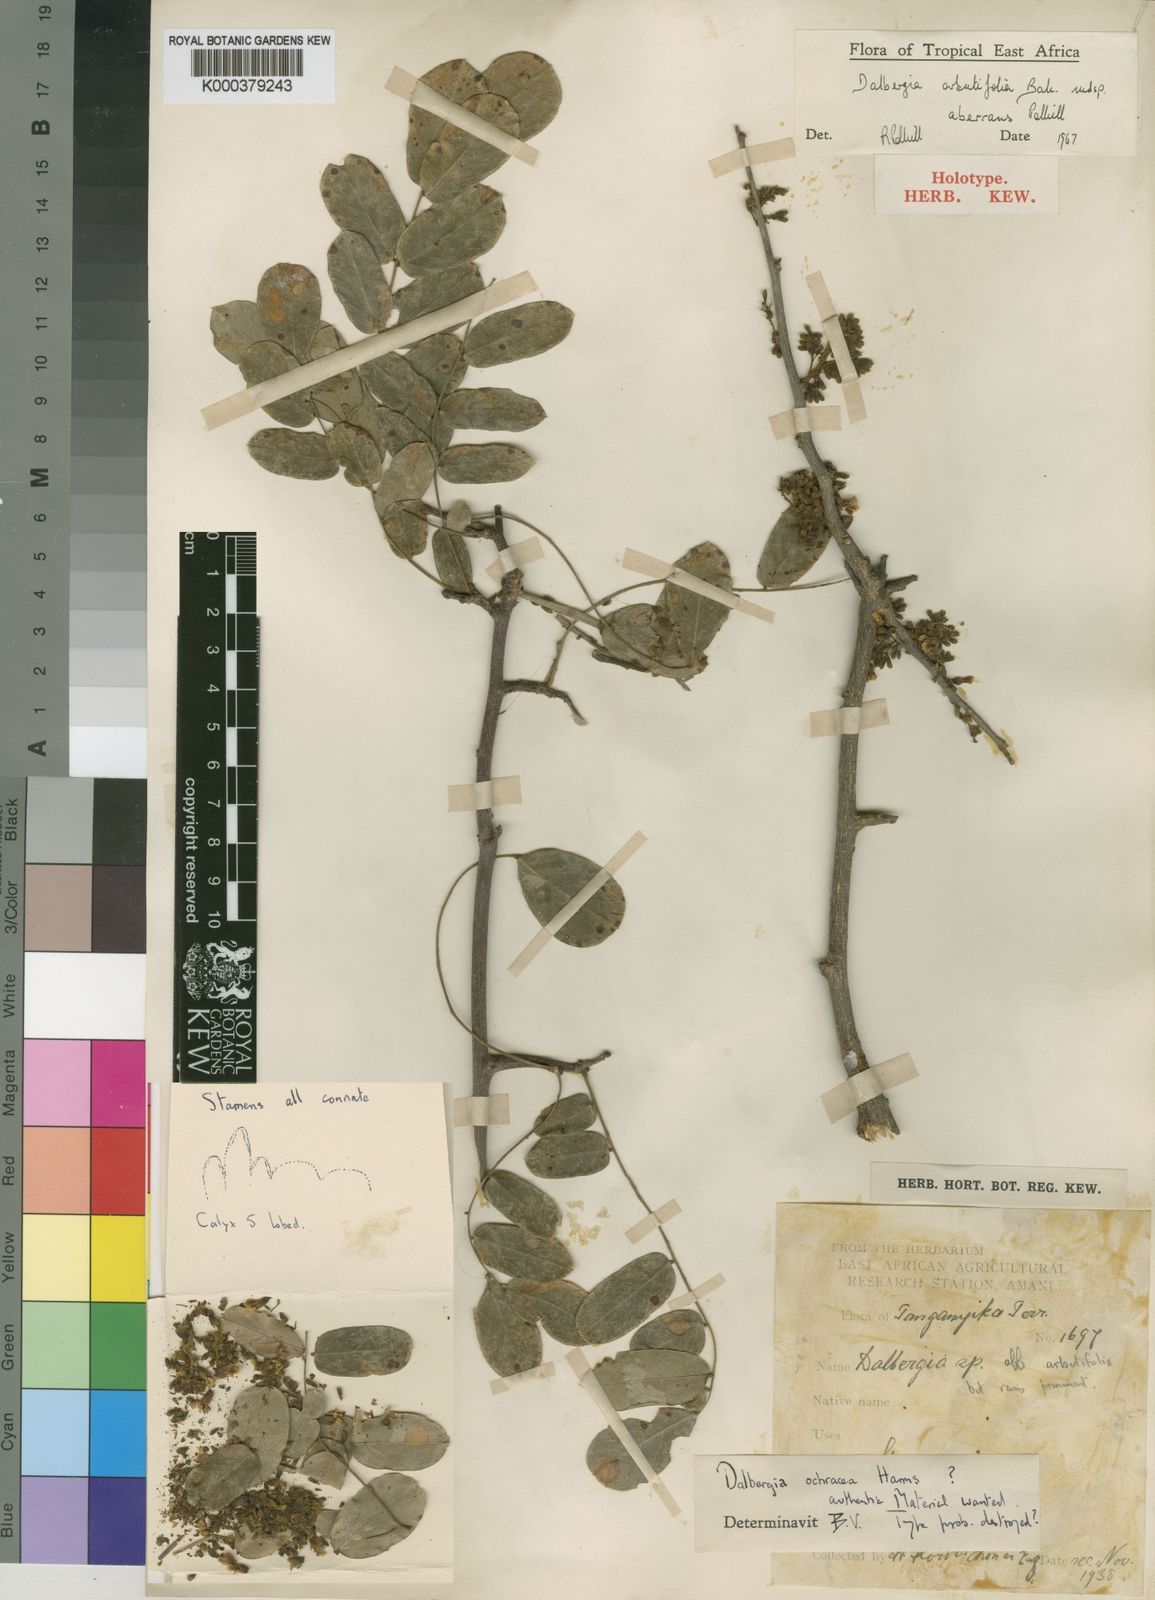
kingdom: Plantae
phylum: Tracheophyta
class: Magnoliopsida
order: Fabales
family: Fabaceae
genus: Dalbergia
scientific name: Dalbergia arbutifolia
